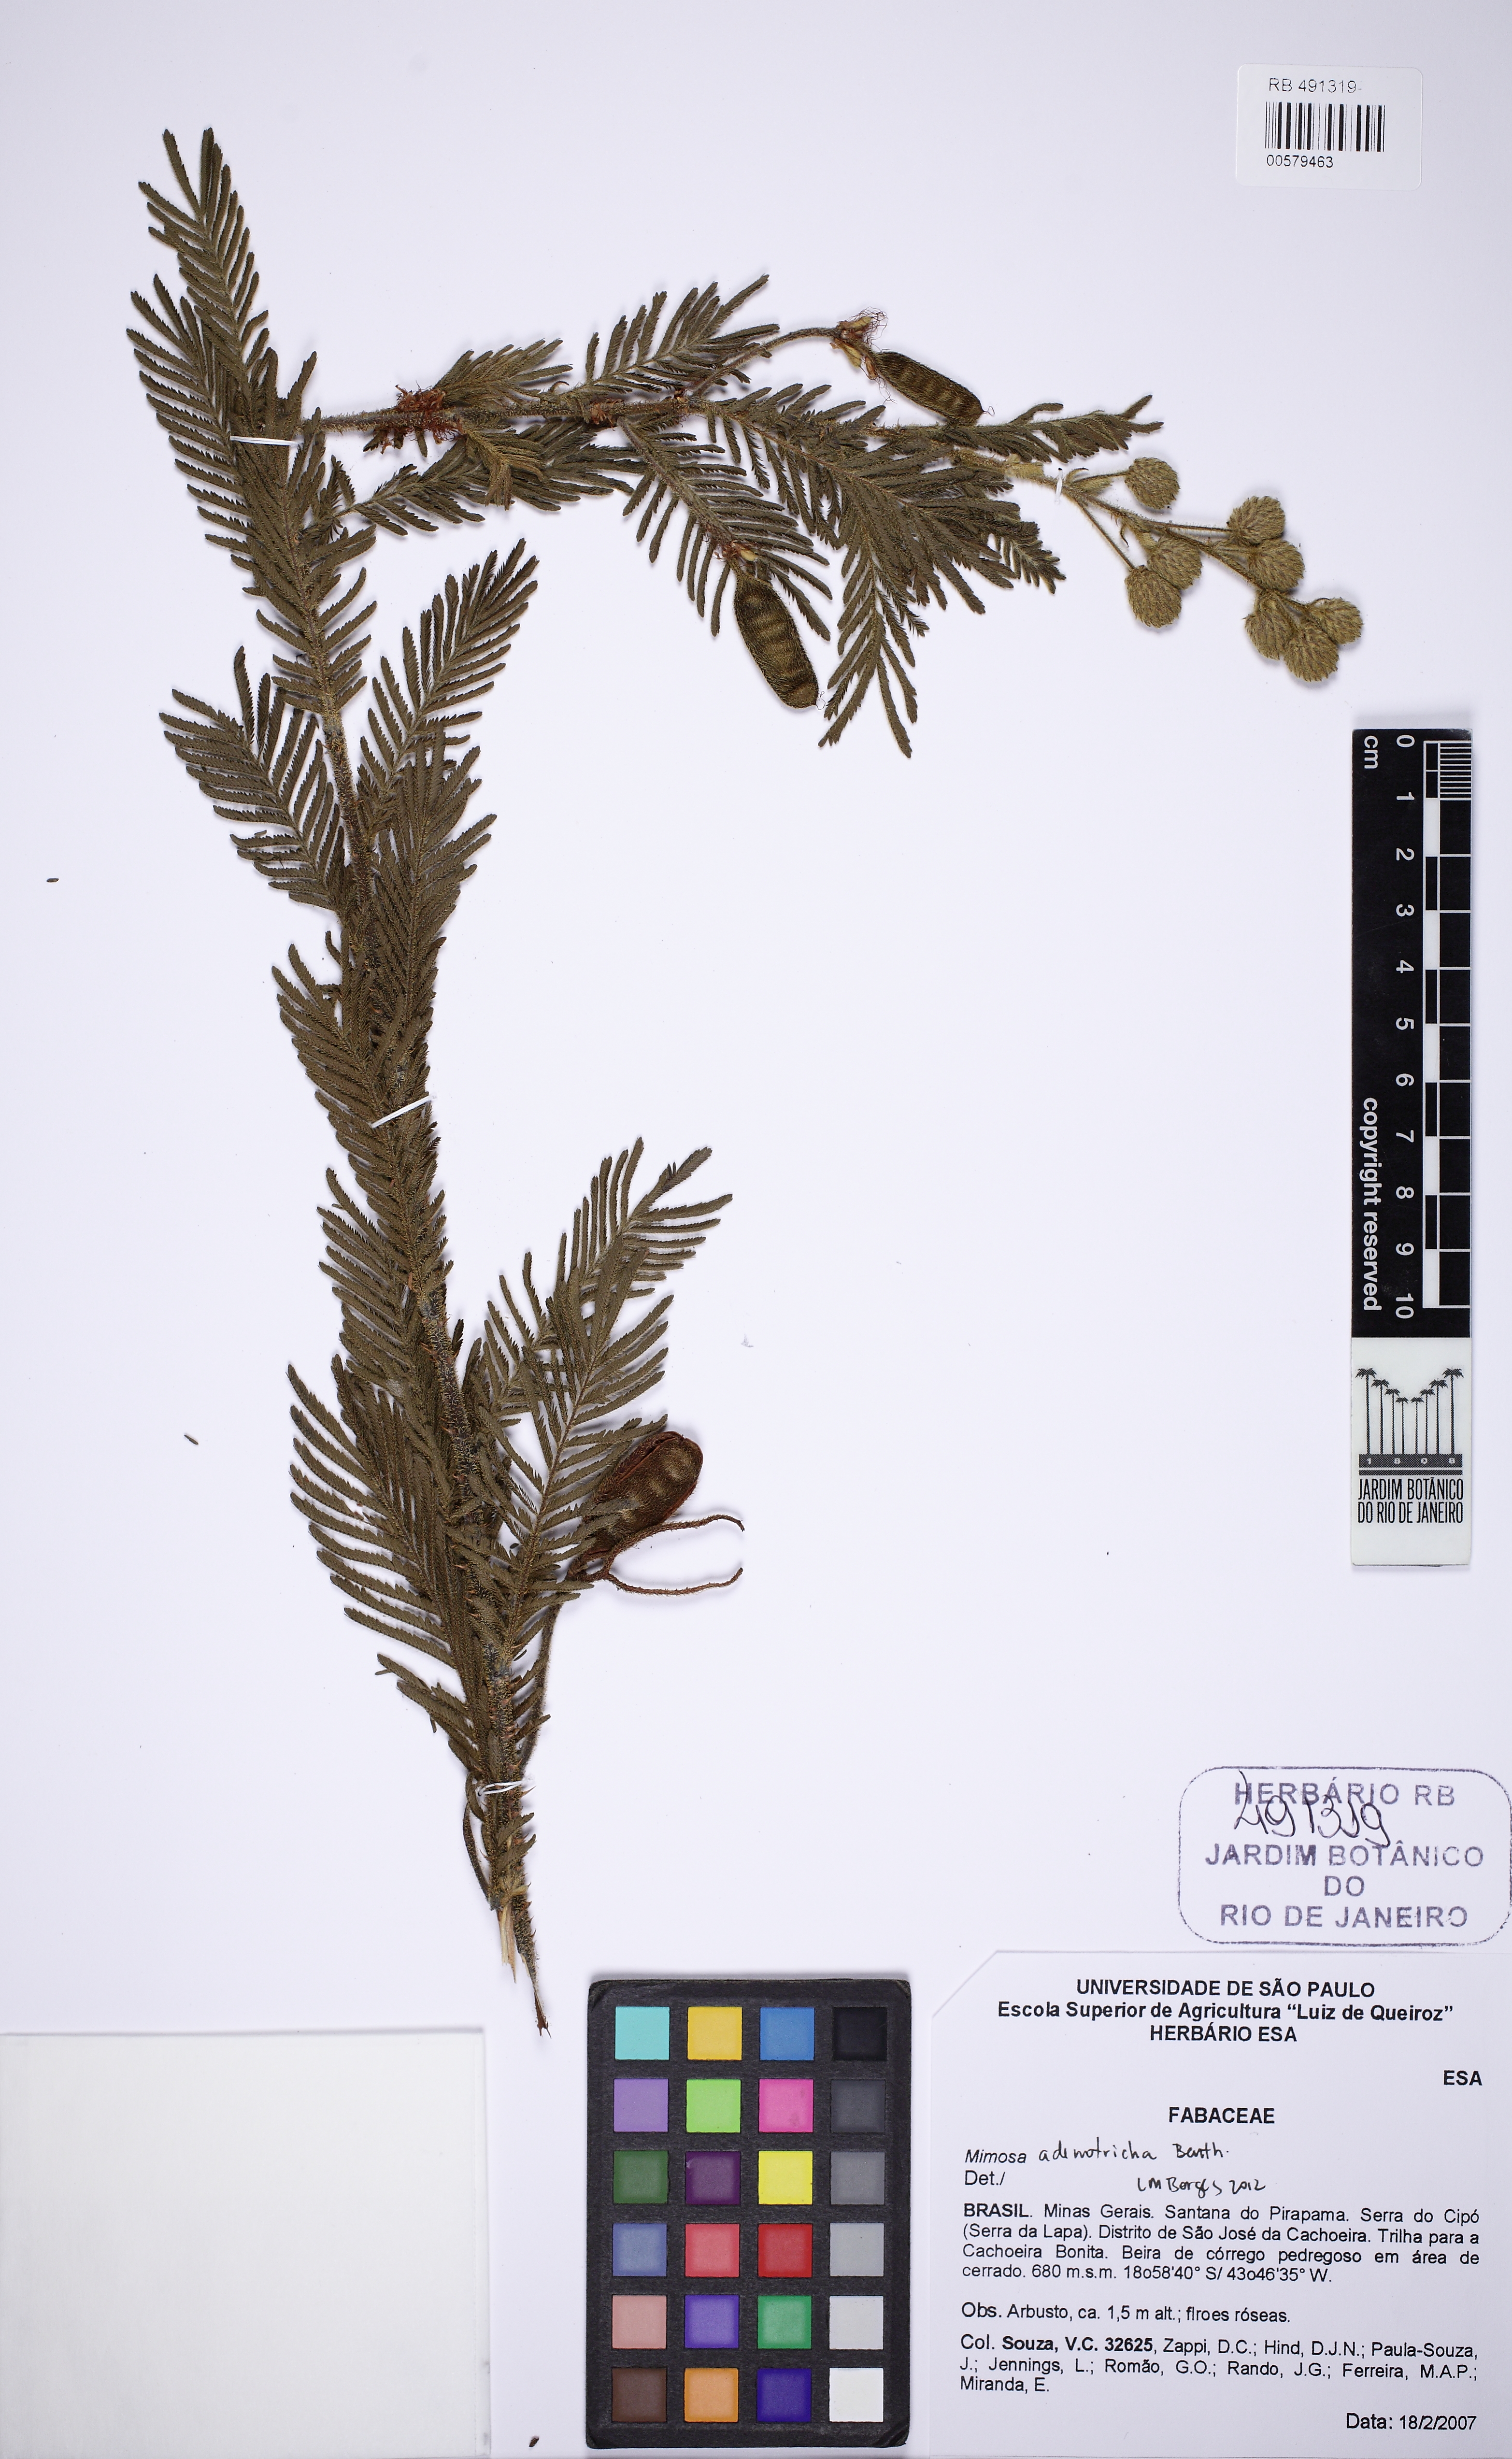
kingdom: Plantae
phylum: Tracheophyta
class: Magnoliopsida
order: Fabales
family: Fabaceae
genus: Mimosa
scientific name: Mimosa adenotricha
